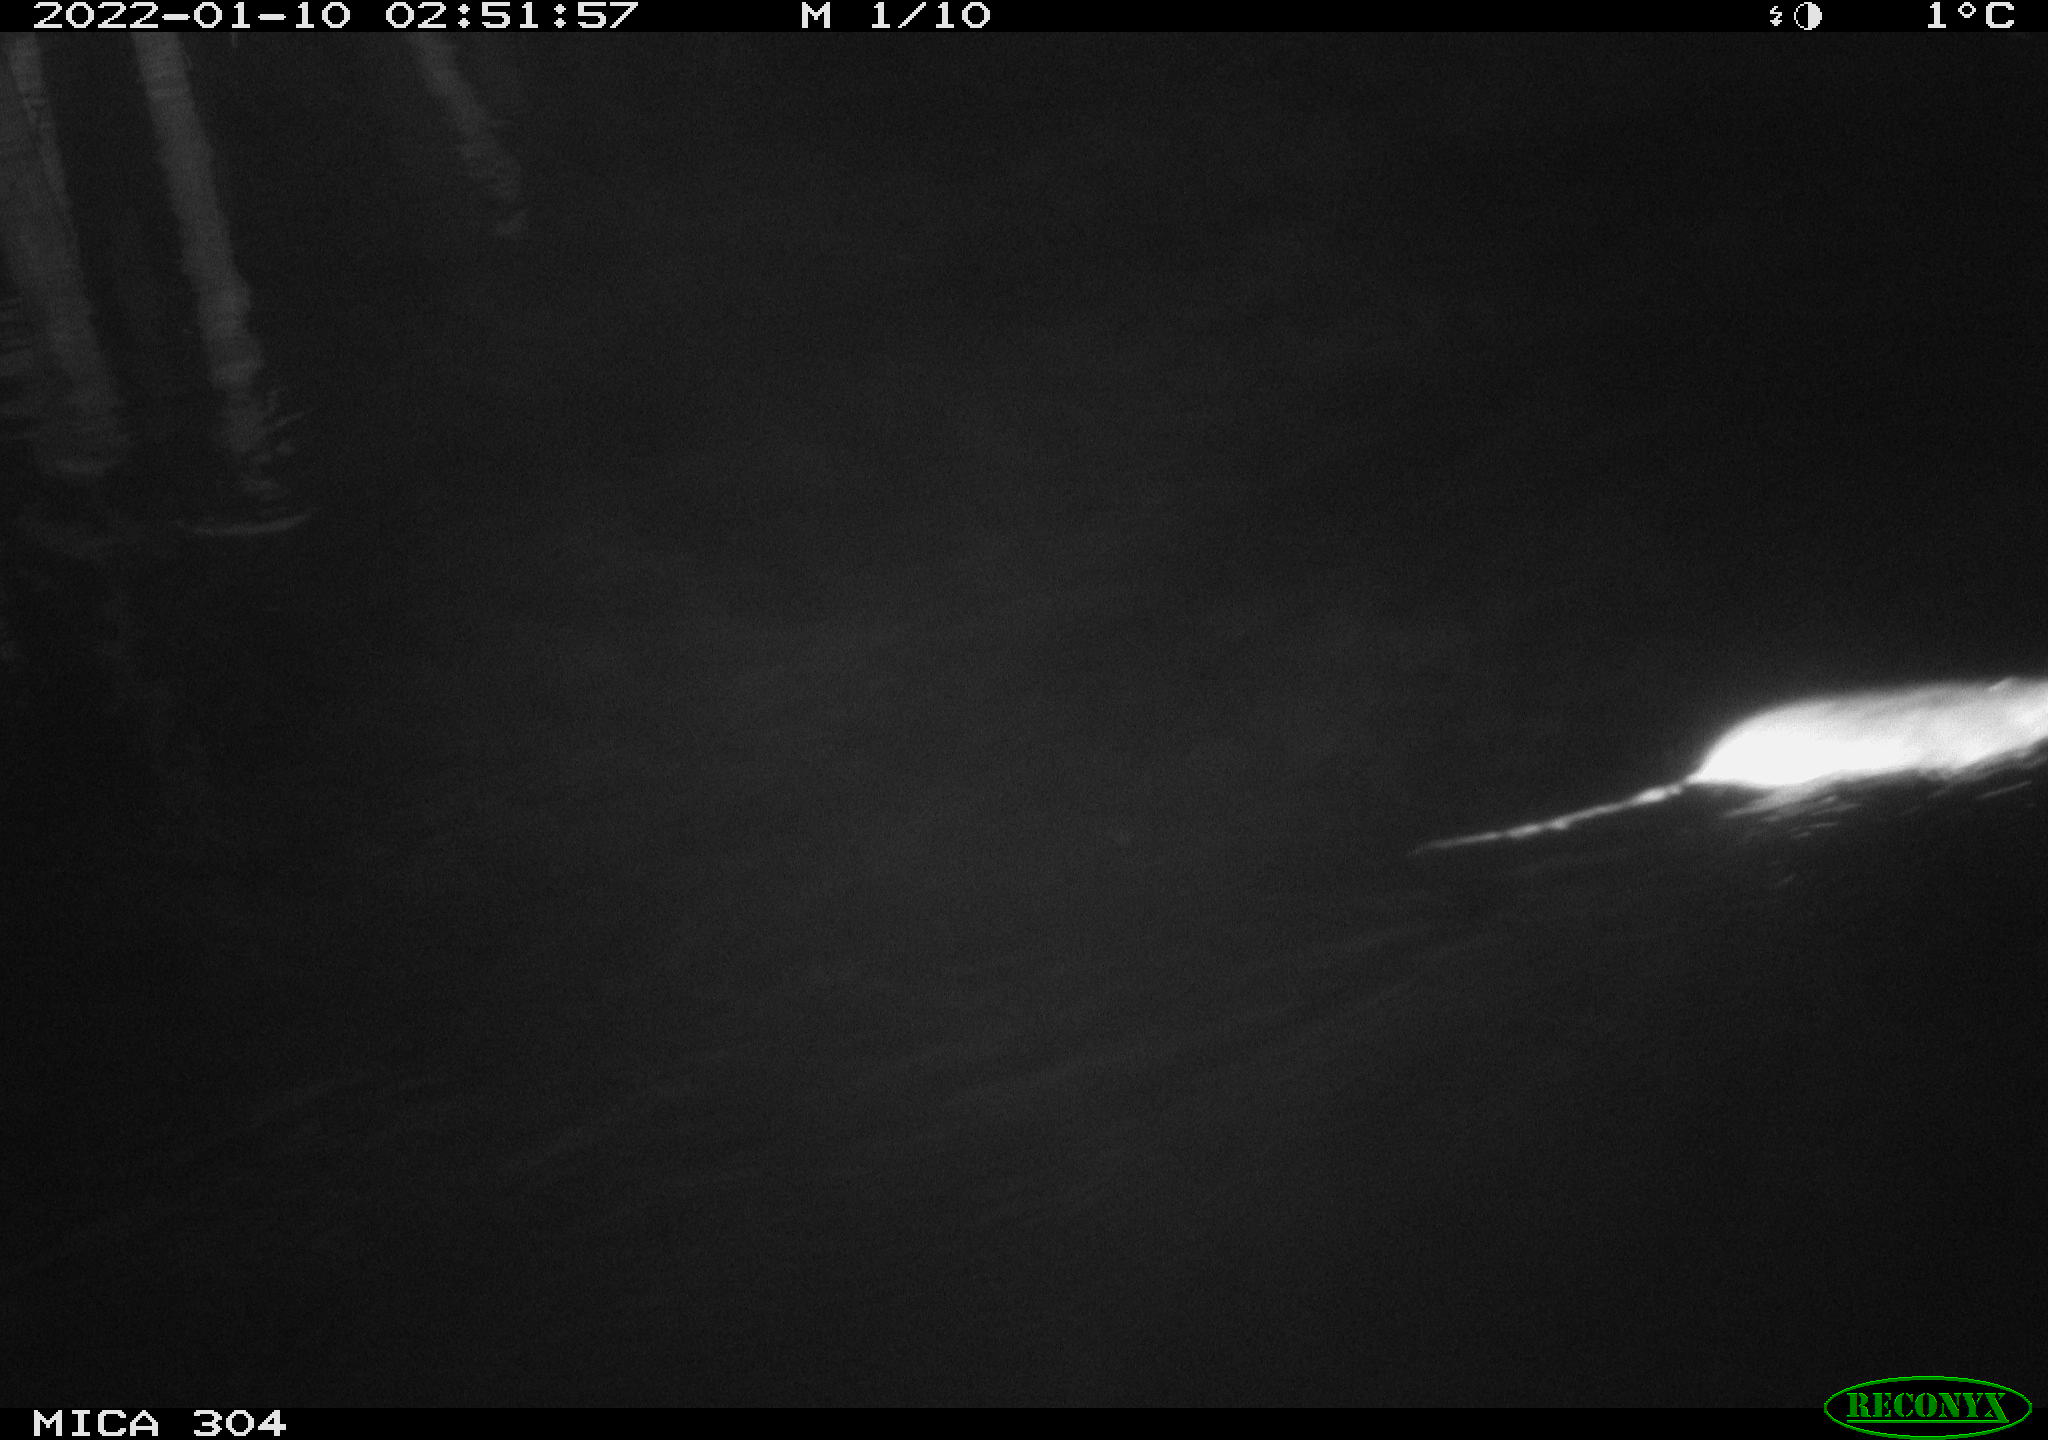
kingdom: Animalia
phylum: Chordata
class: Mammalia
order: Rodentia
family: Muridae
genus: Rattus
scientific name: Rattus norvegicus
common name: Brown rat
